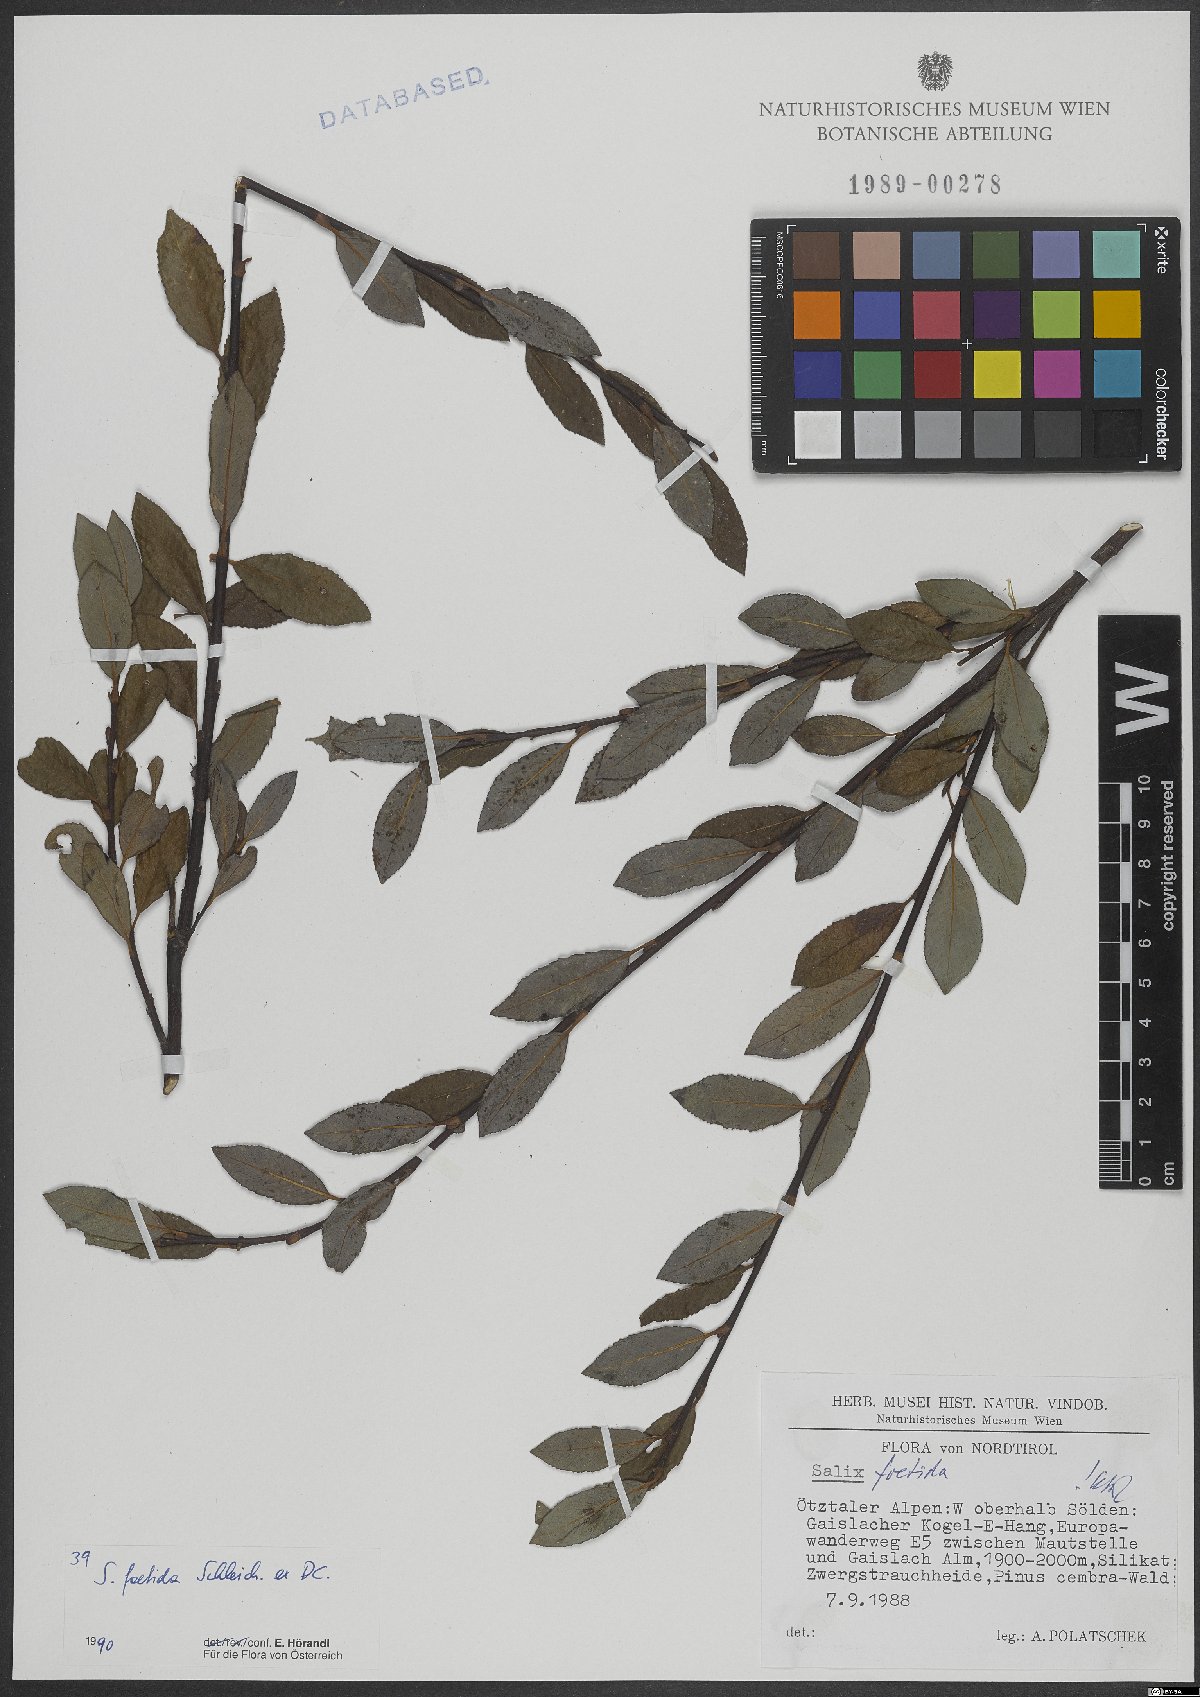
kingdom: Plantae
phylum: Tracheophyta
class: Magnoliopsida
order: Malpighiales
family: Salicaceae
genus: Salix
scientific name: Salix foetida
